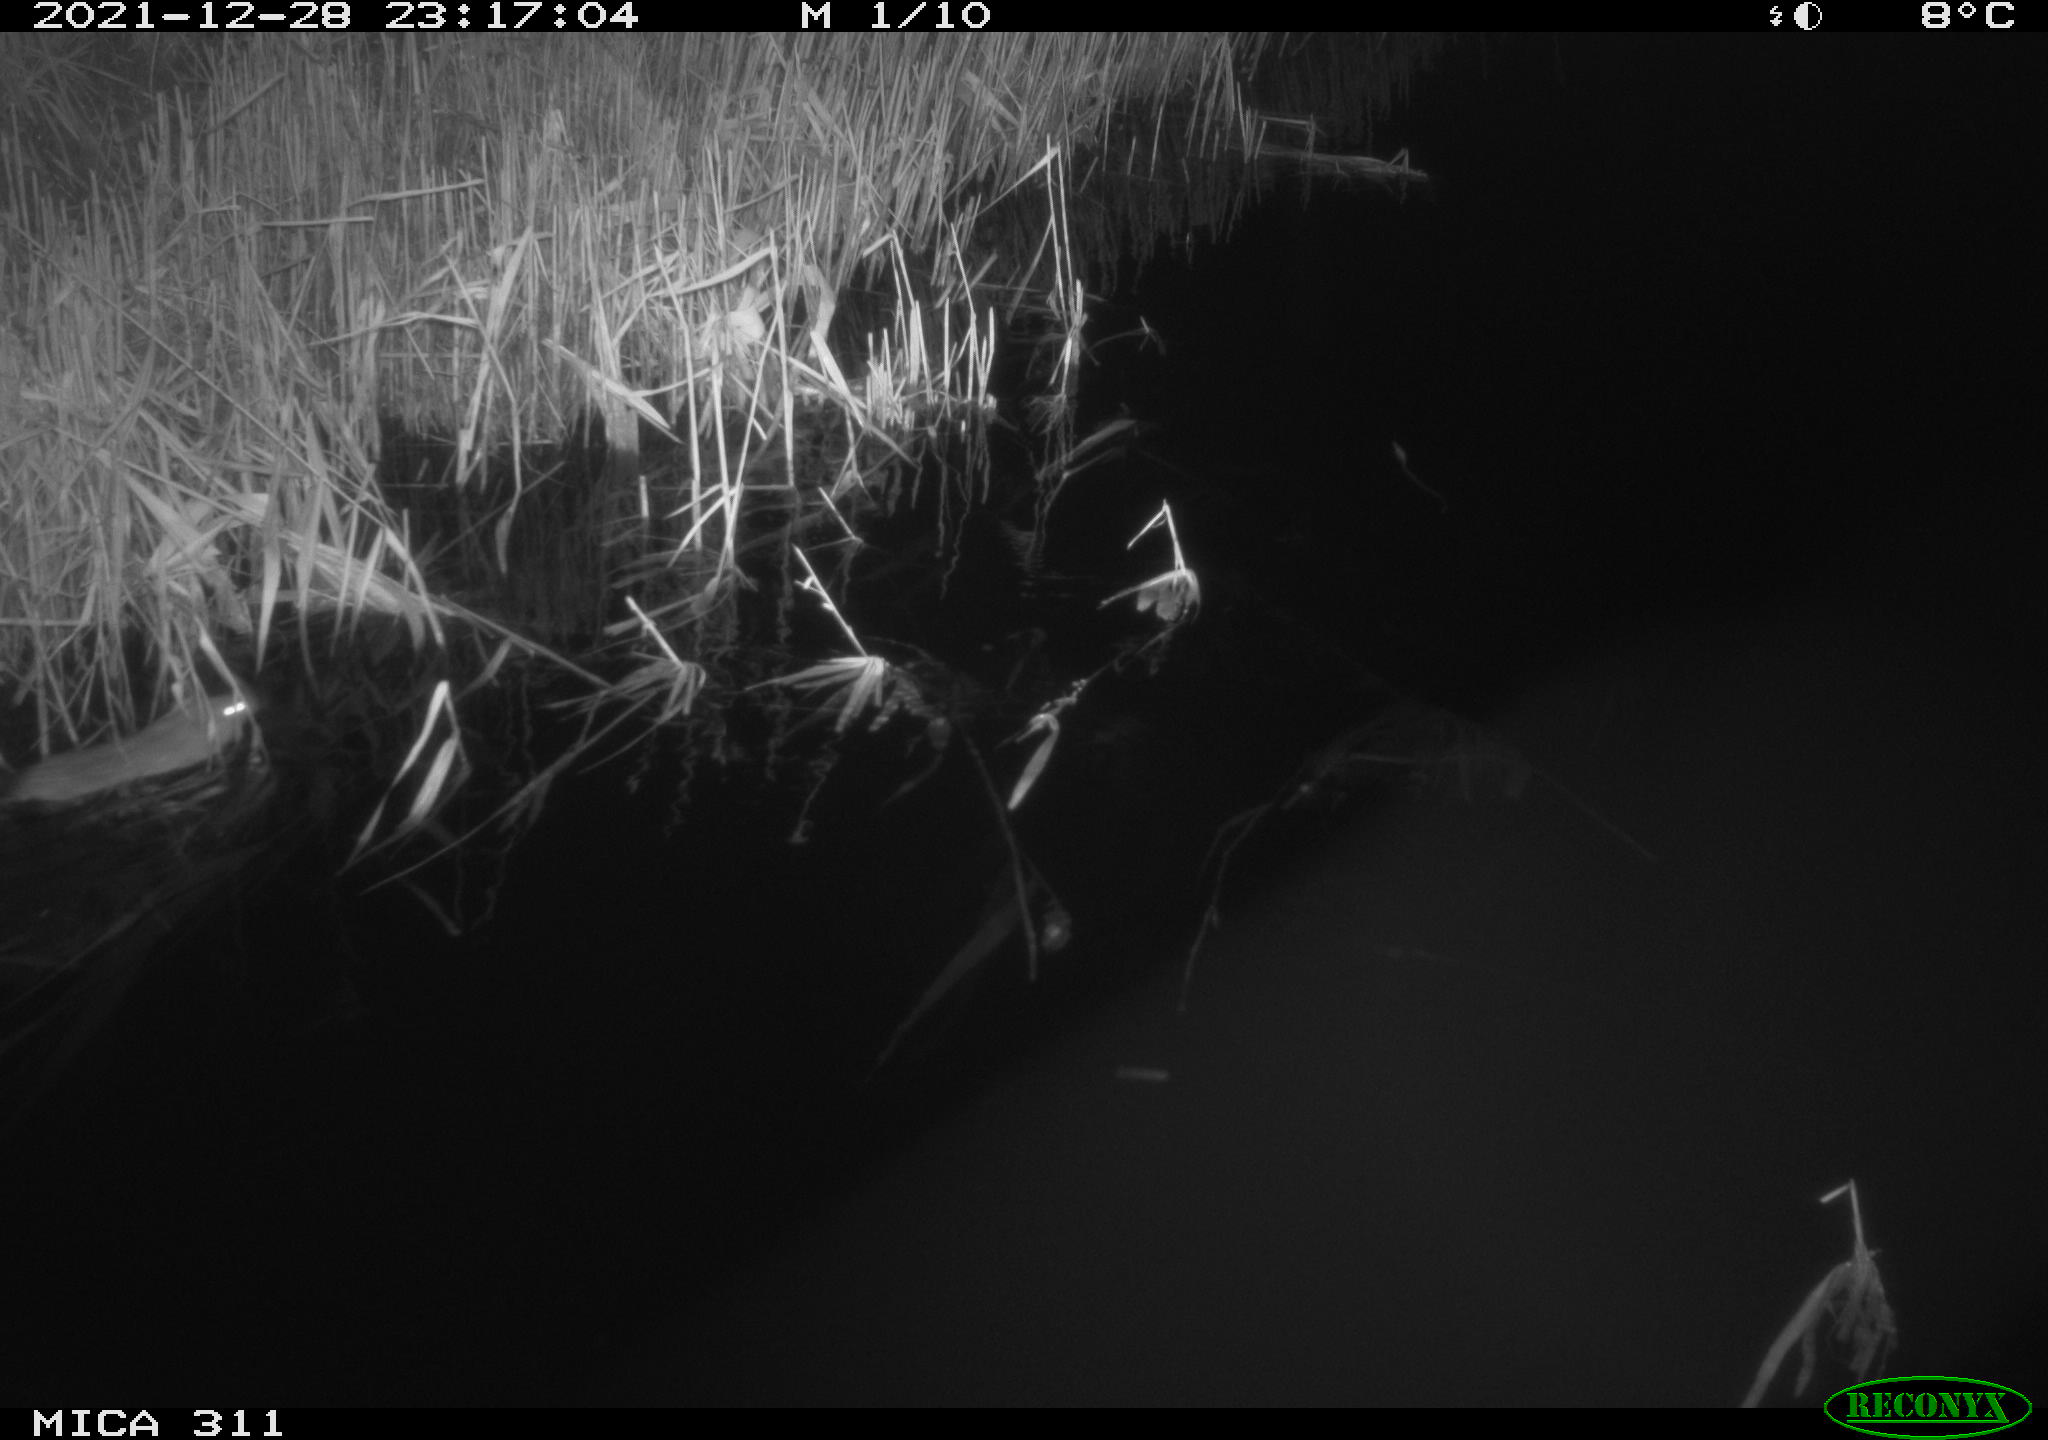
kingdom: Animalia
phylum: Chordata
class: Mammalia
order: Rodentia
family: Muridae
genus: Rattus
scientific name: Rattus norvegicus
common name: Brown rat
